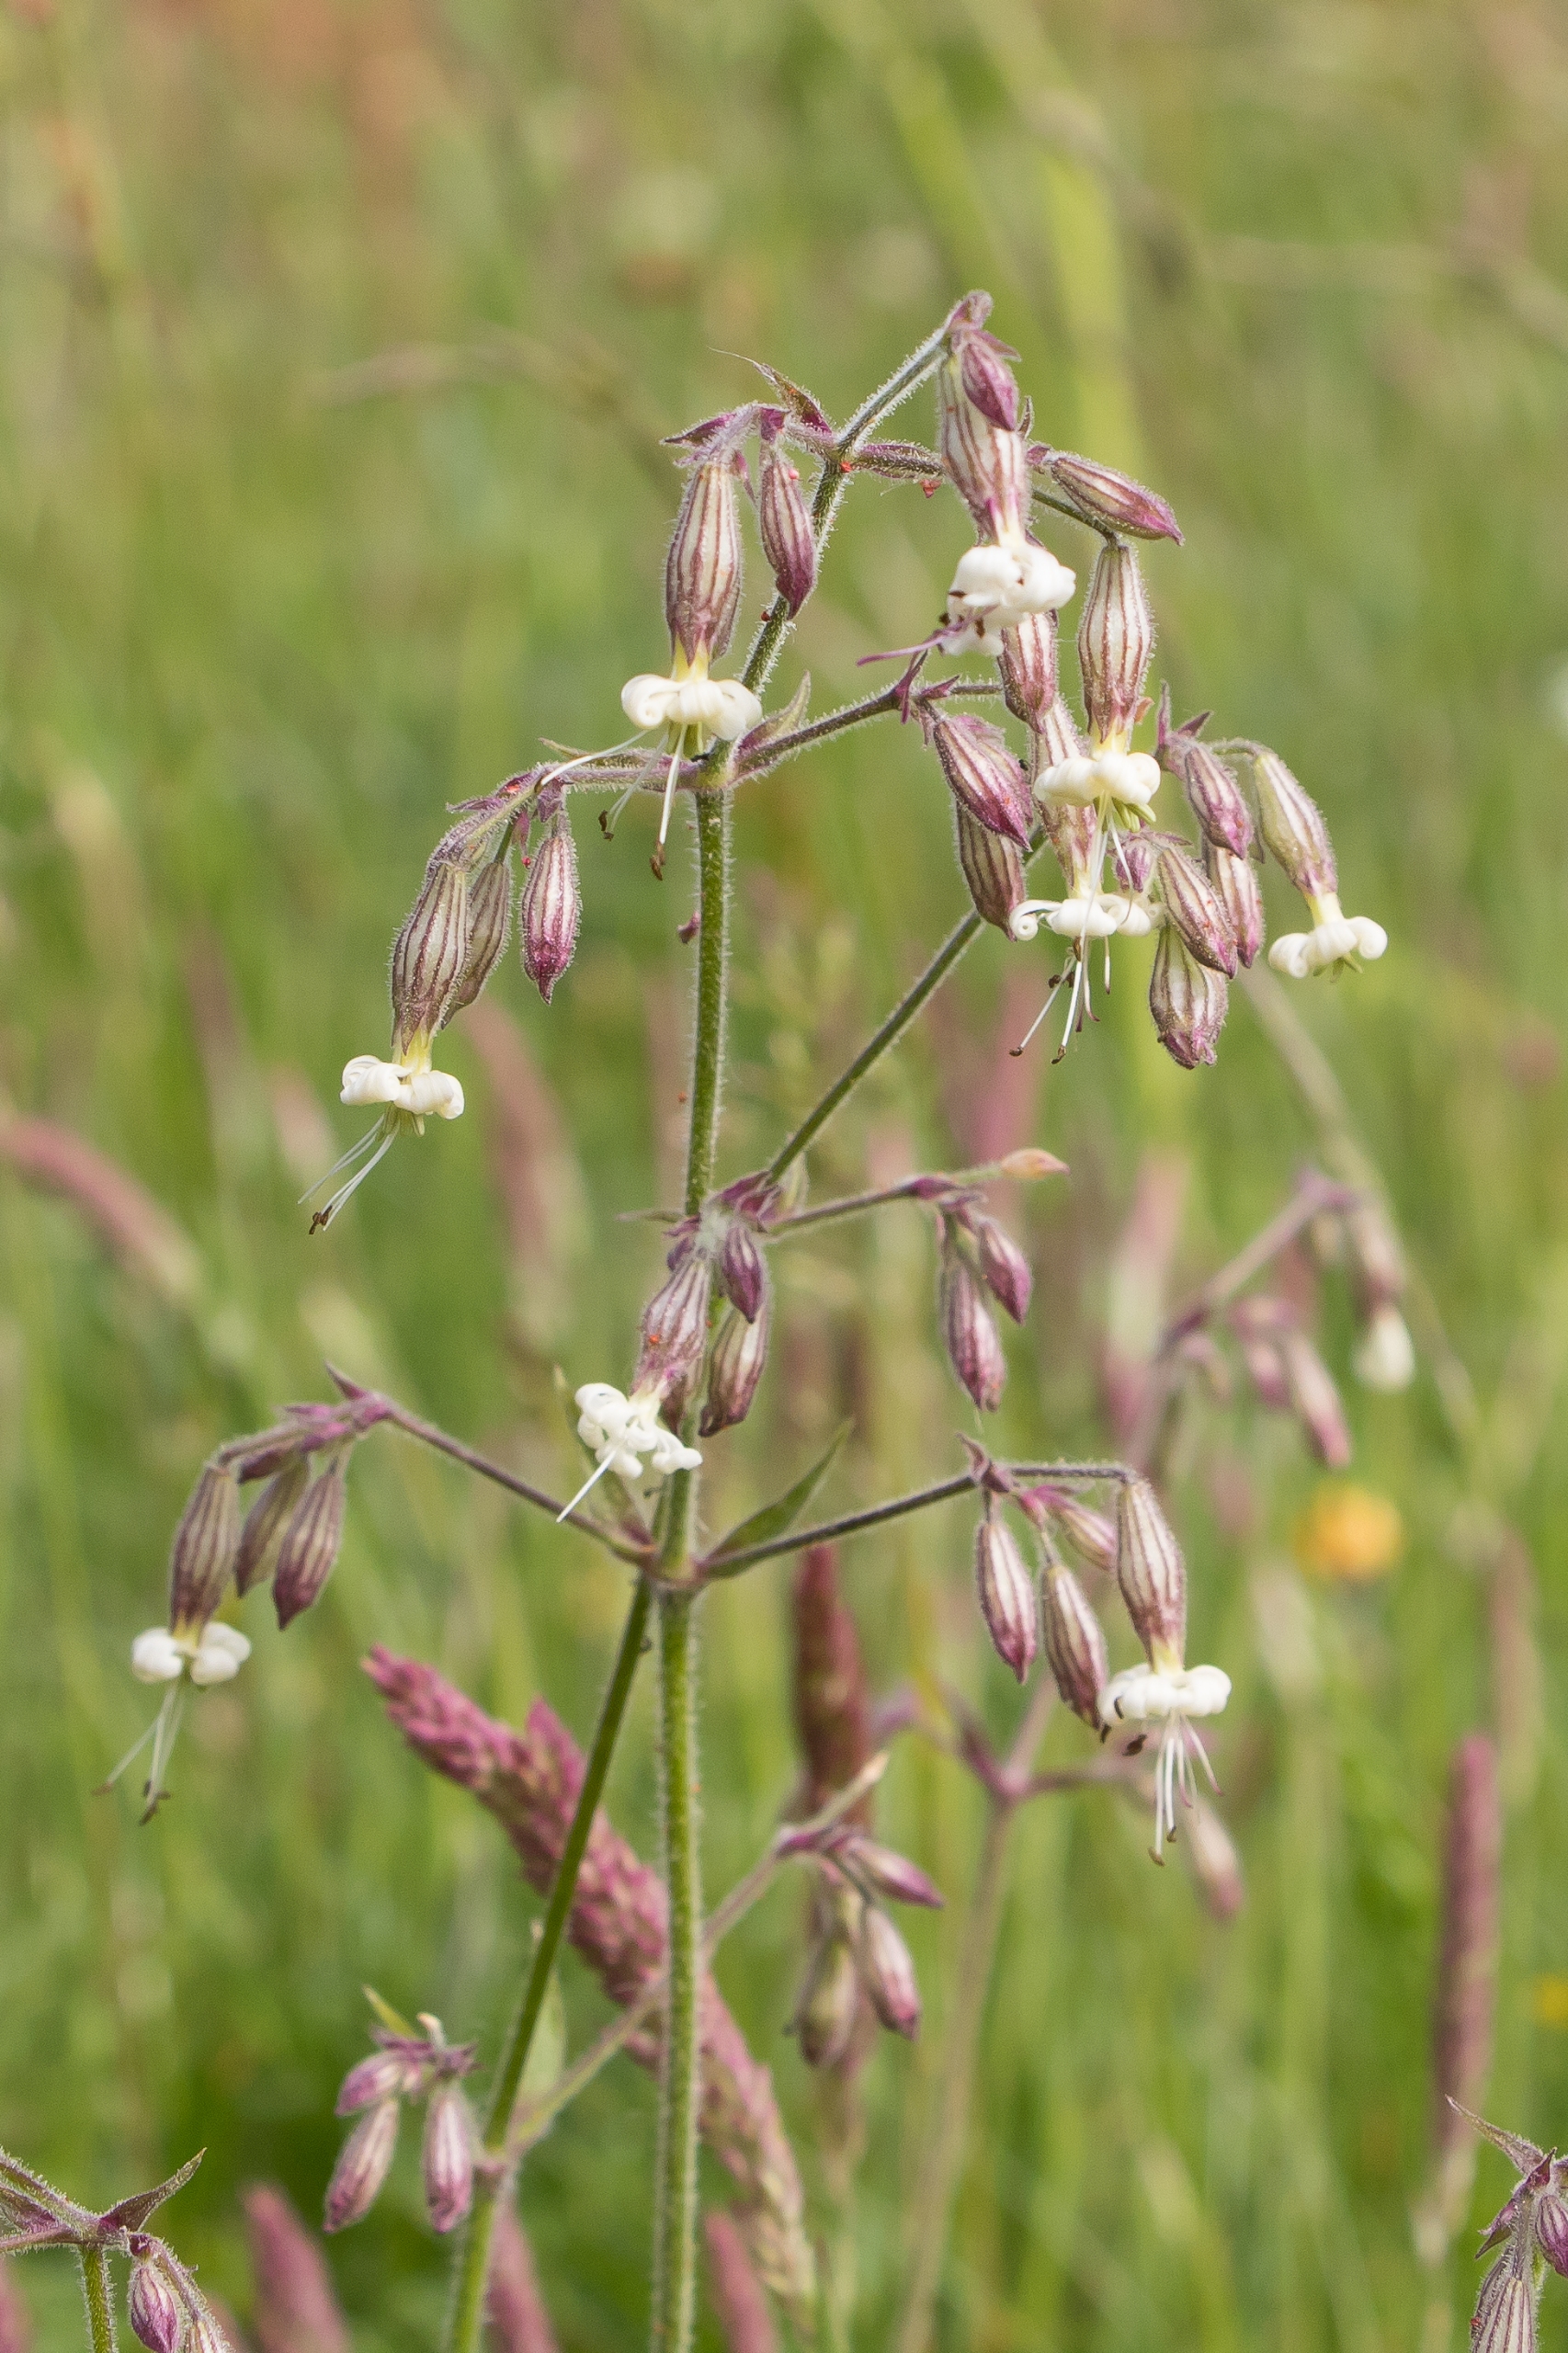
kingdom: Plantae
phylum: Tracheophyta
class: Magnoliopsida
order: Caryophyllales
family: Caryophyllaceae
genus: Silene
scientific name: Silene nutans
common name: Nikkende limurt
